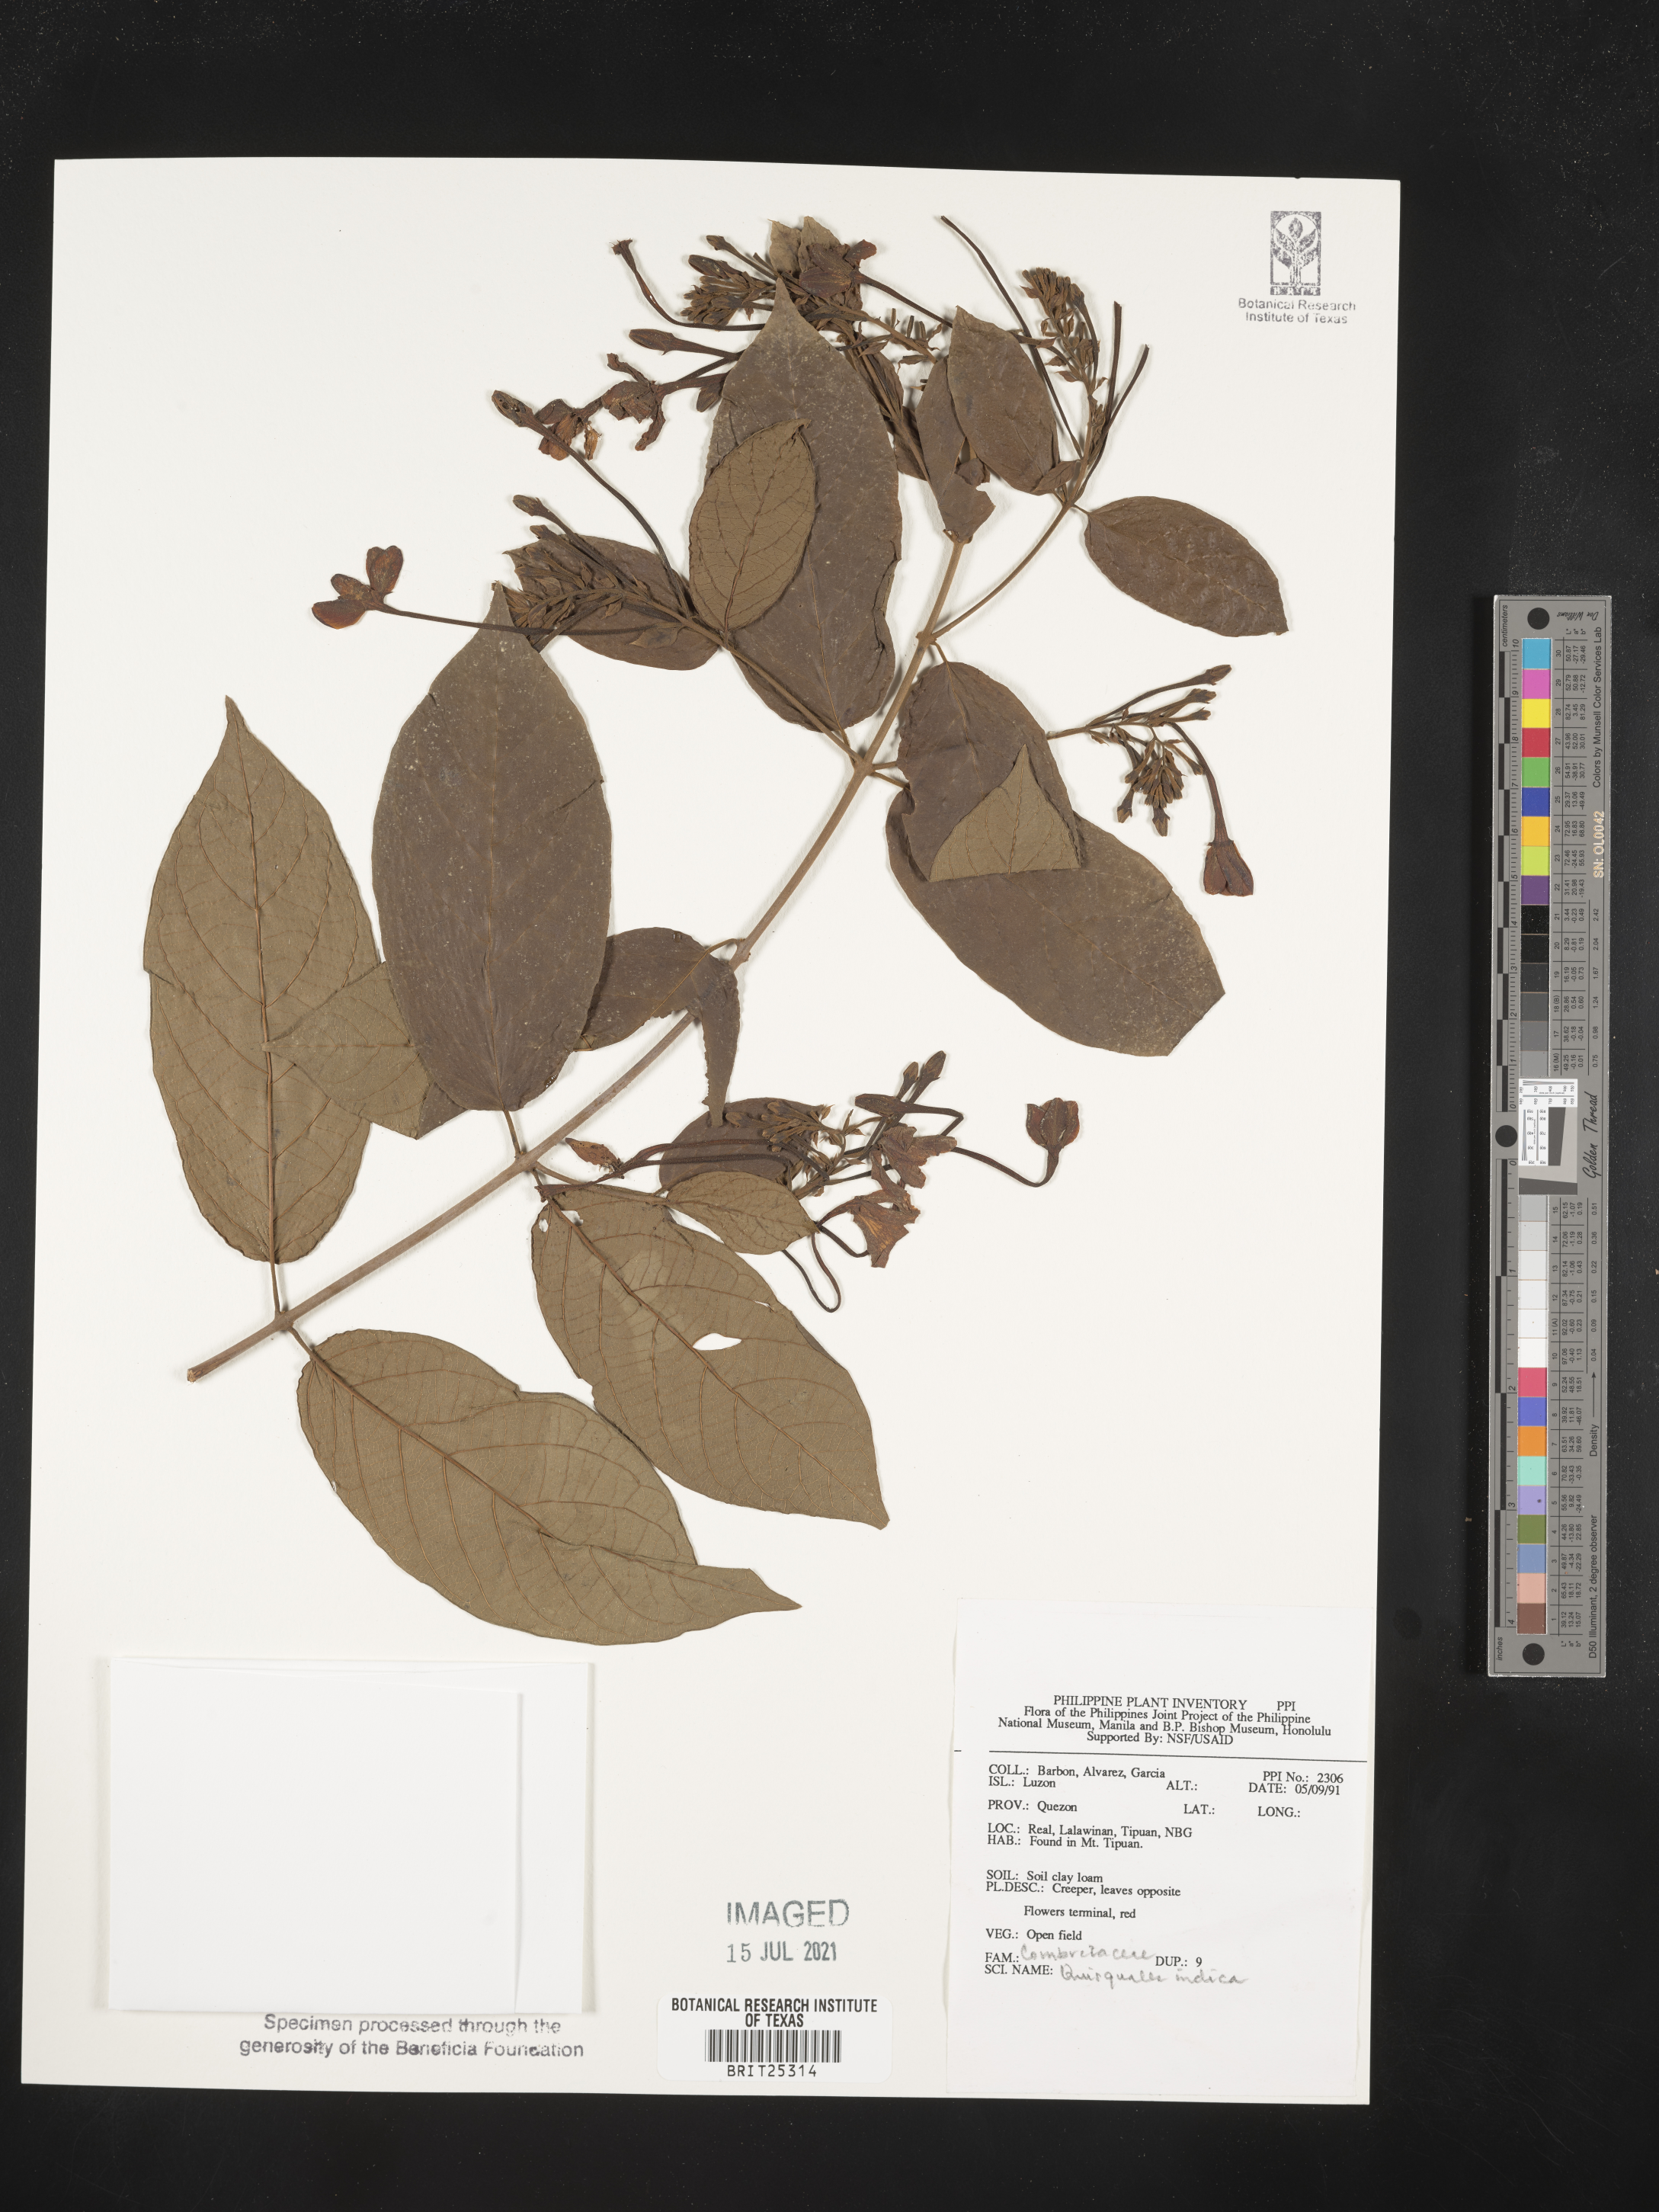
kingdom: Plantae
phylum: Tracheophyta
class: Magnoliopsida
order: Myrtales
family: Combretaceae
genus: Combretum
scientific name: Combretum indicum
